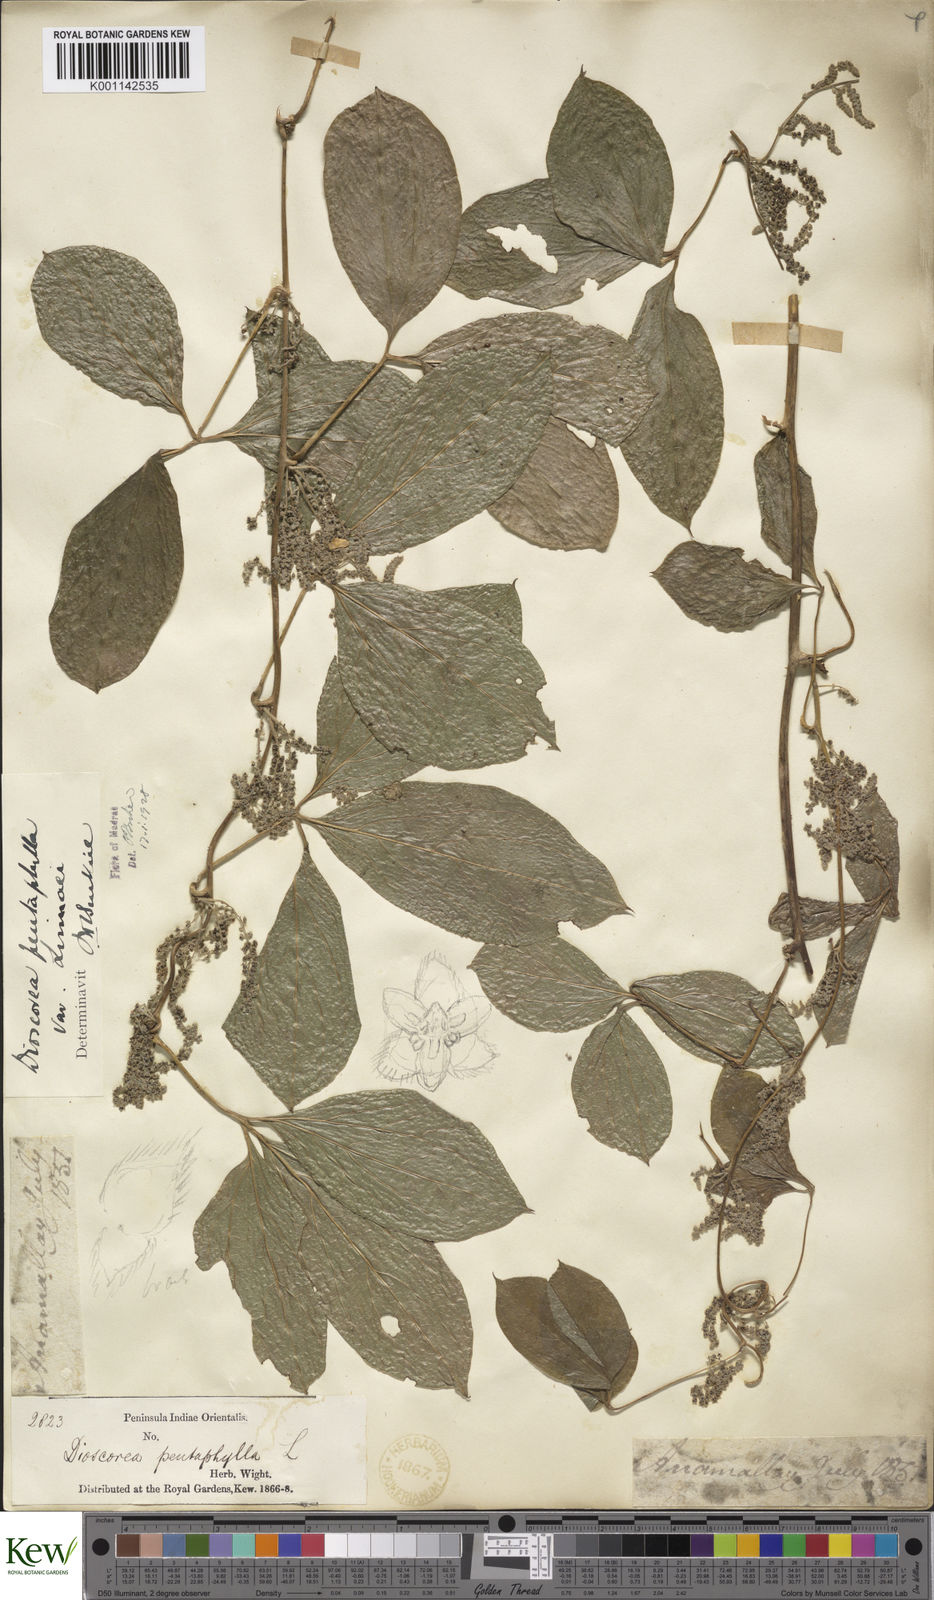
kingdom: Plantae
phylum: Tracheophyta
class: Liliopsida
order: Dioscoreales
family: Dioscoreaceae
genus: Dioscorea
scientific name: Dioscorea pentaphylla
